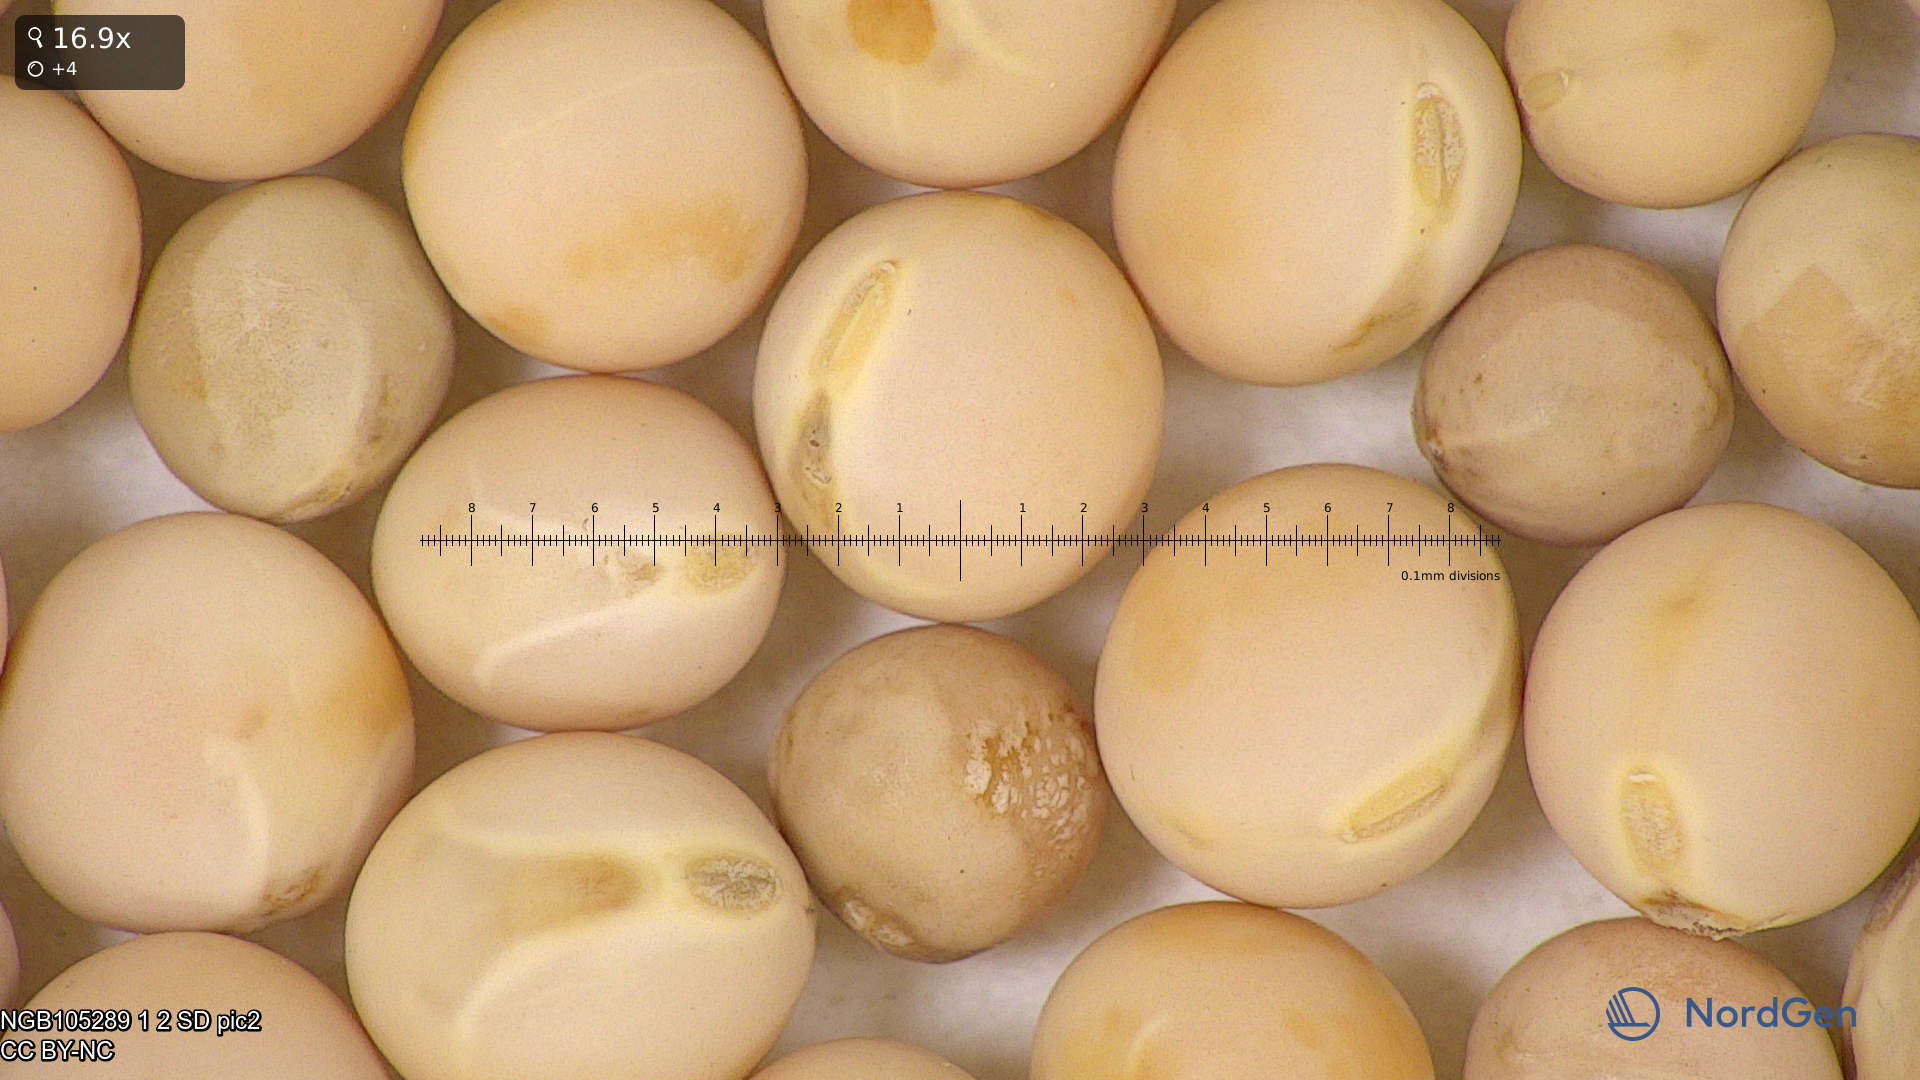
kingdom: Plantae
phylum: Tracheophyta
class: Magnoliopsida
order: Fabales
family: Fabaceae
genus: Lathyrus
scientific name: Lathyrus oleraceus
